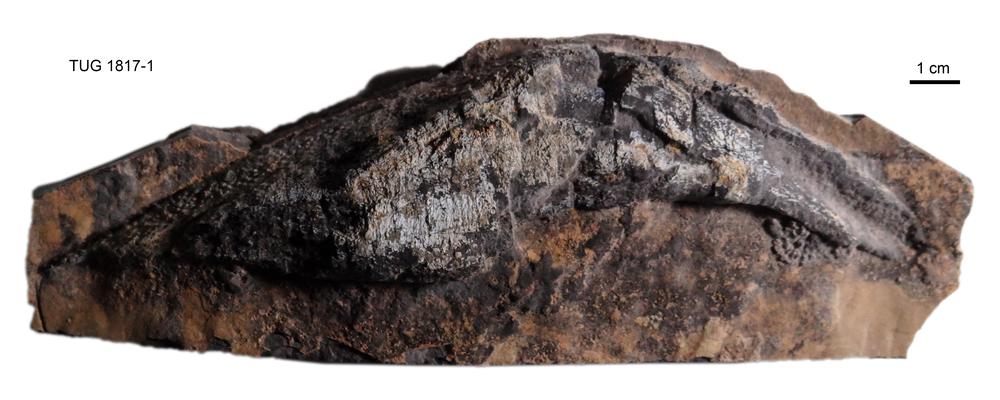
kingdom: Animalia
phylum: Chordata
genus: Homosteus
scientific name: Homosteus milleri
